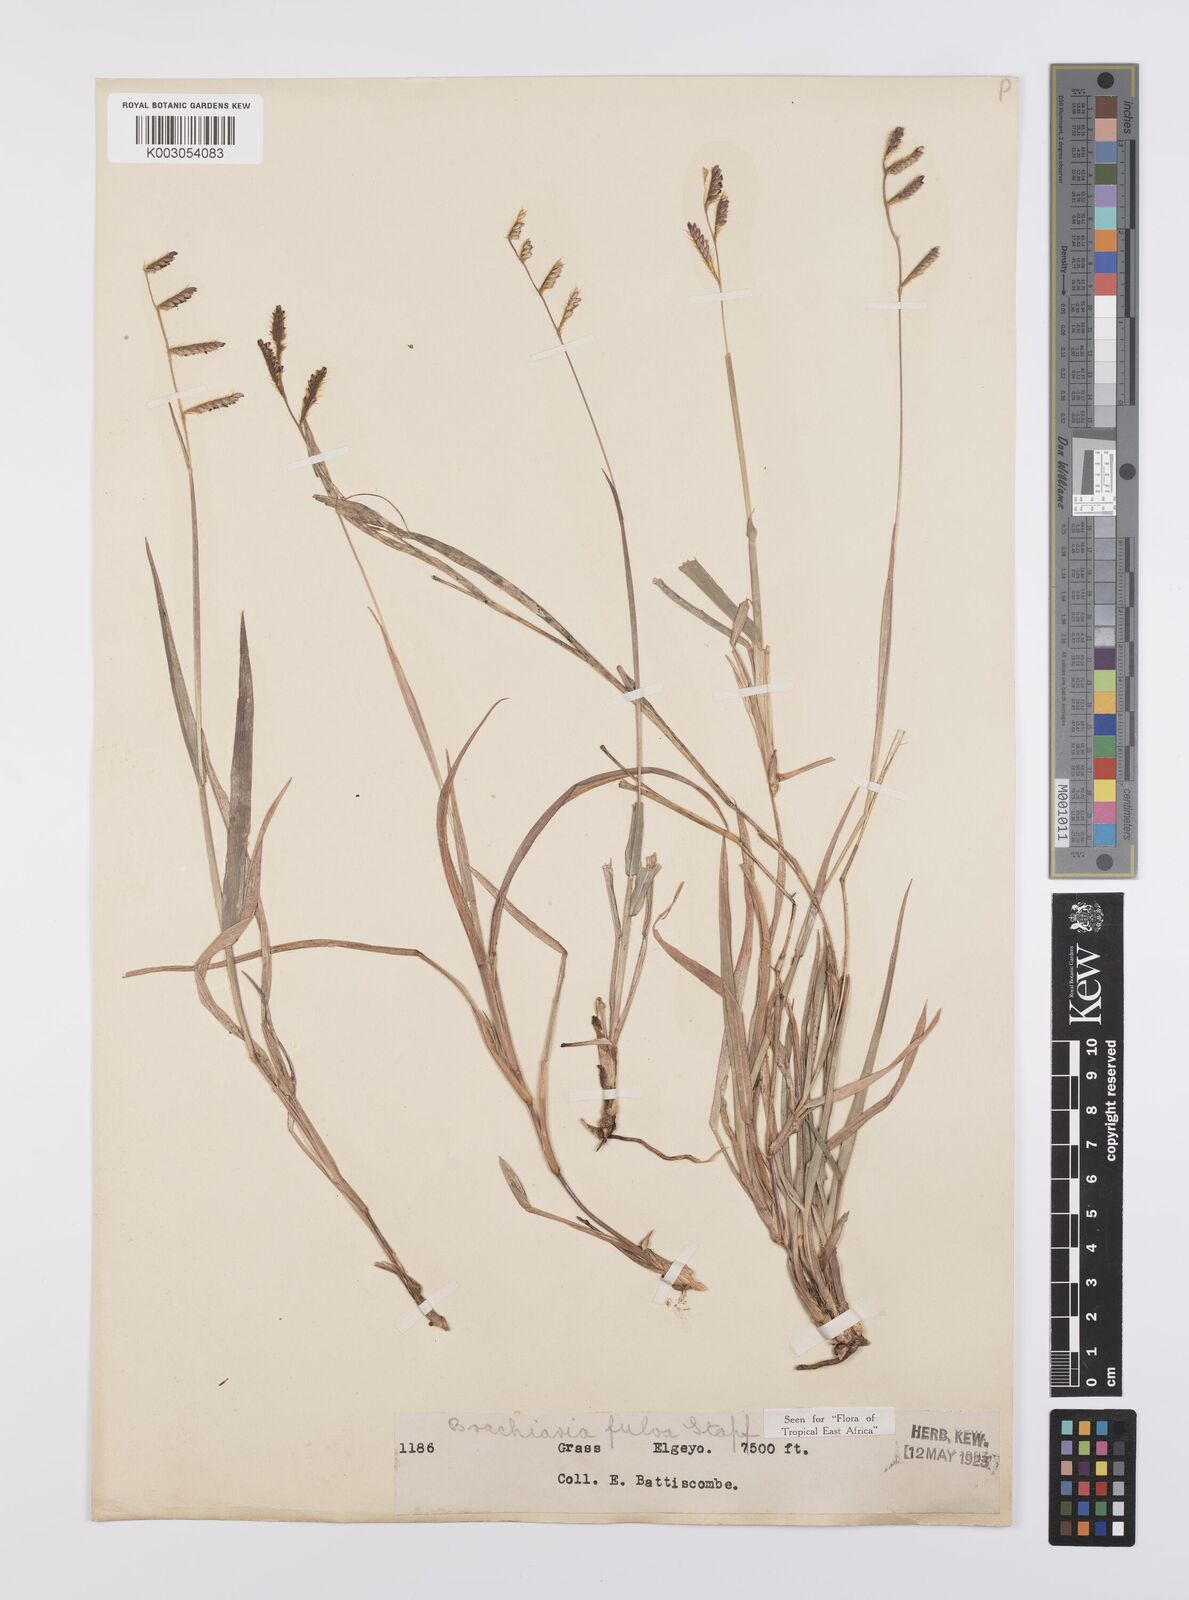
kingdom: Plantae
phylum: Tracheophyta
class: Liliopsida
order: Poales
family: Poaceae
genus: Urochloa
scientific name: Urochloa jubata
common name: Buffalograss
